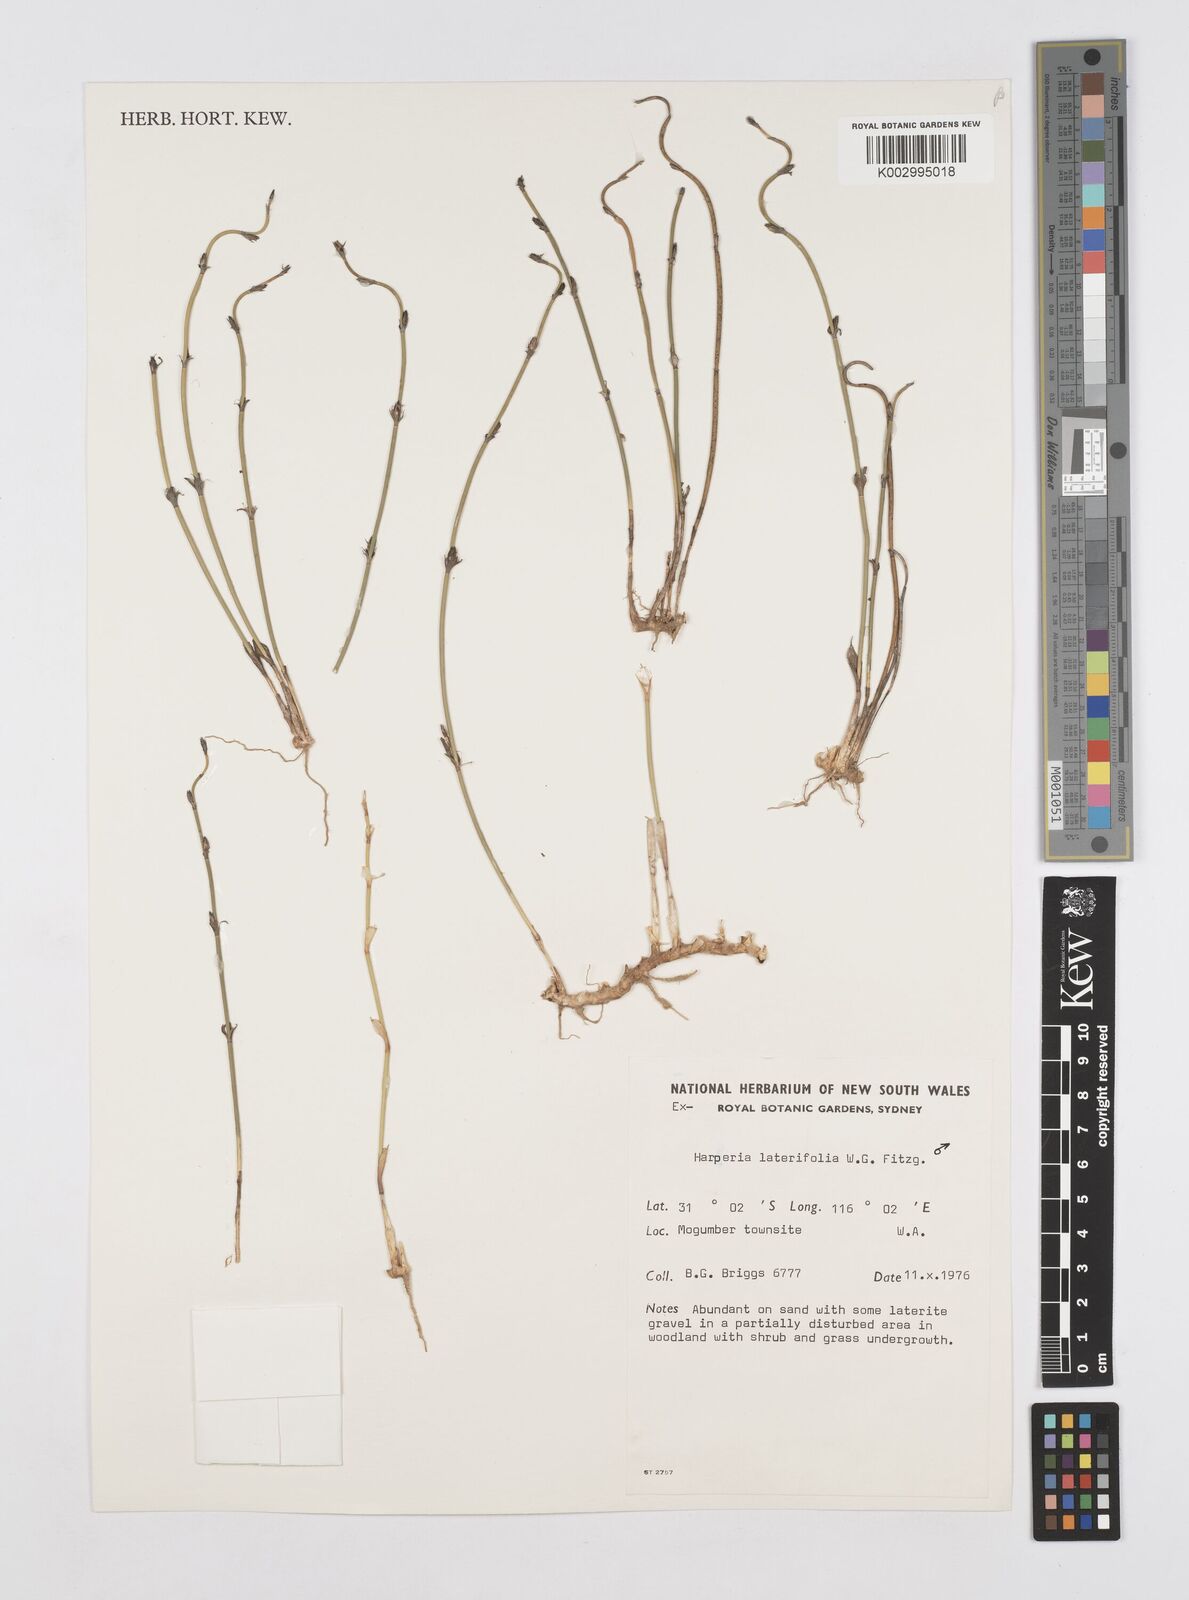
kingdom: Plantae
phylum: Tracheophyta
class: Liliopsida
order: Poales
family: Restionaceae
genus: Desmocladus
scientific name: Desmocladus lateriflorus
